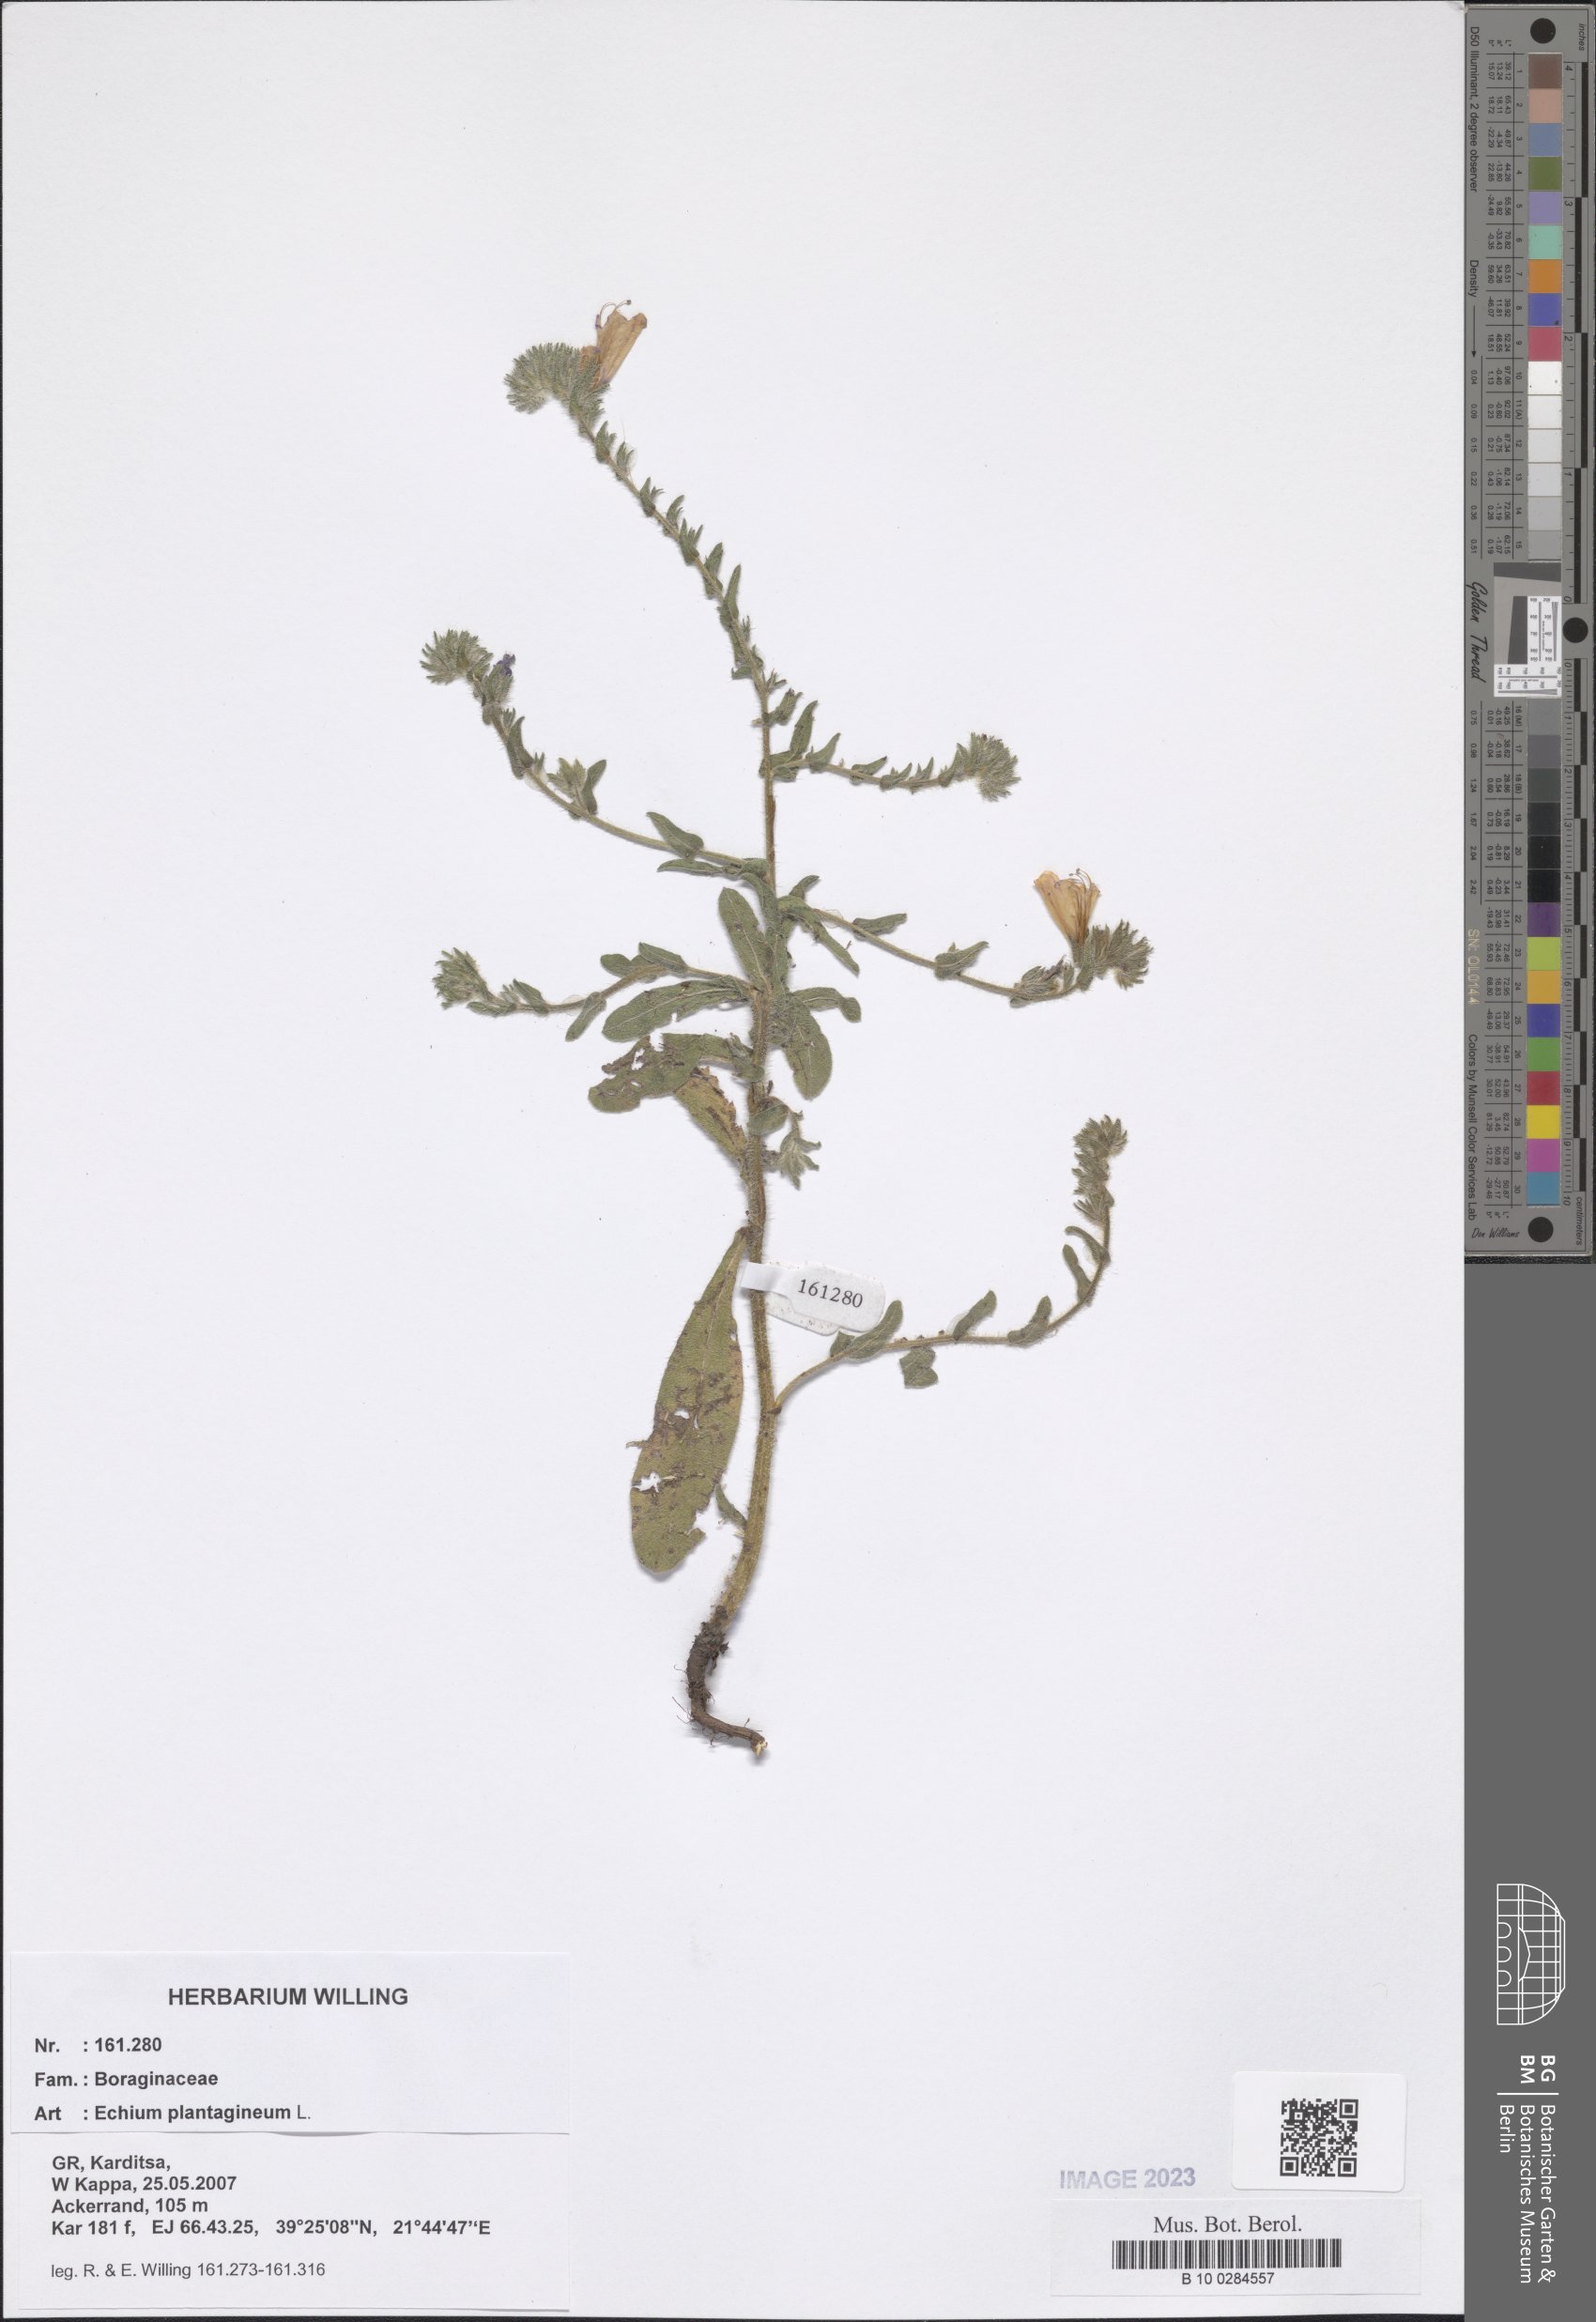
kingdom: Plantae
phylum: Tracheophyta
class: Magnoliopsida
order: Boraginales
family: Boraginaceae
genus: Echium
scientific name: Echium plantagineum
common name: Purple viper's-bugloss
